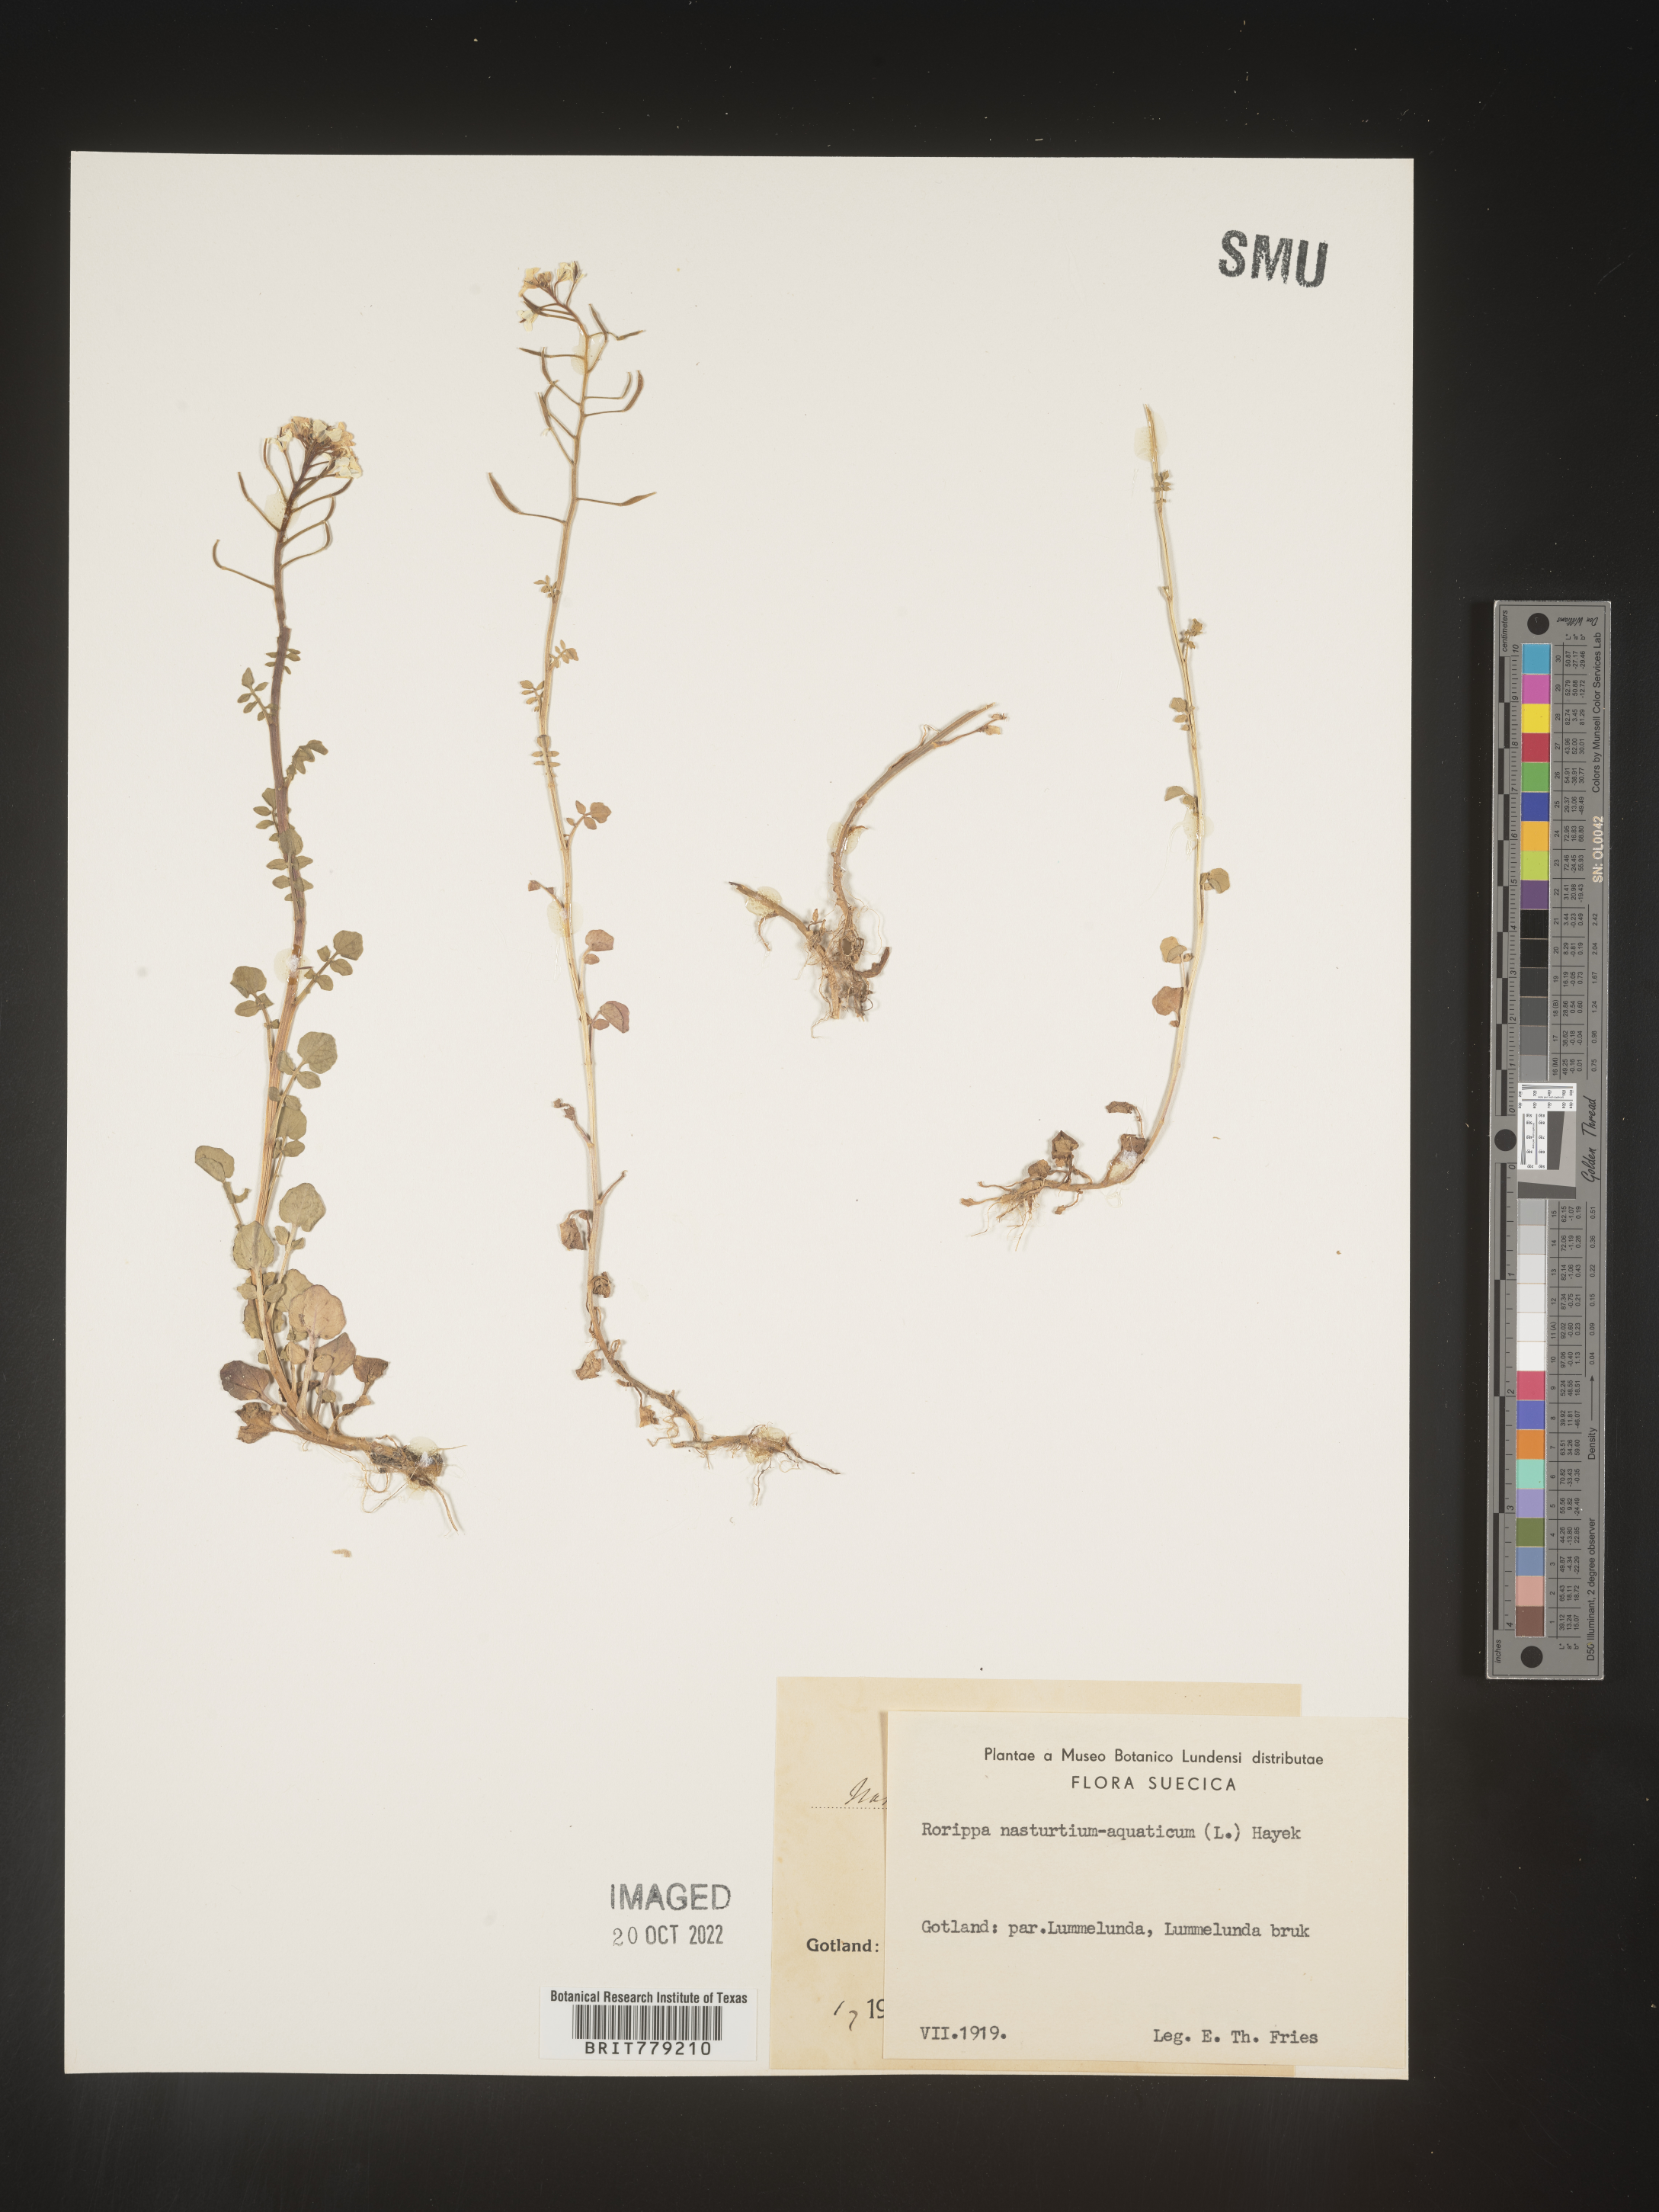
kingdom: Plantae
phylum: Tracheophyta
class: Magnoliopsida
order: Brassicales
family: Brassicaceae
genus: Rorippa
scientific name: Rorippa
